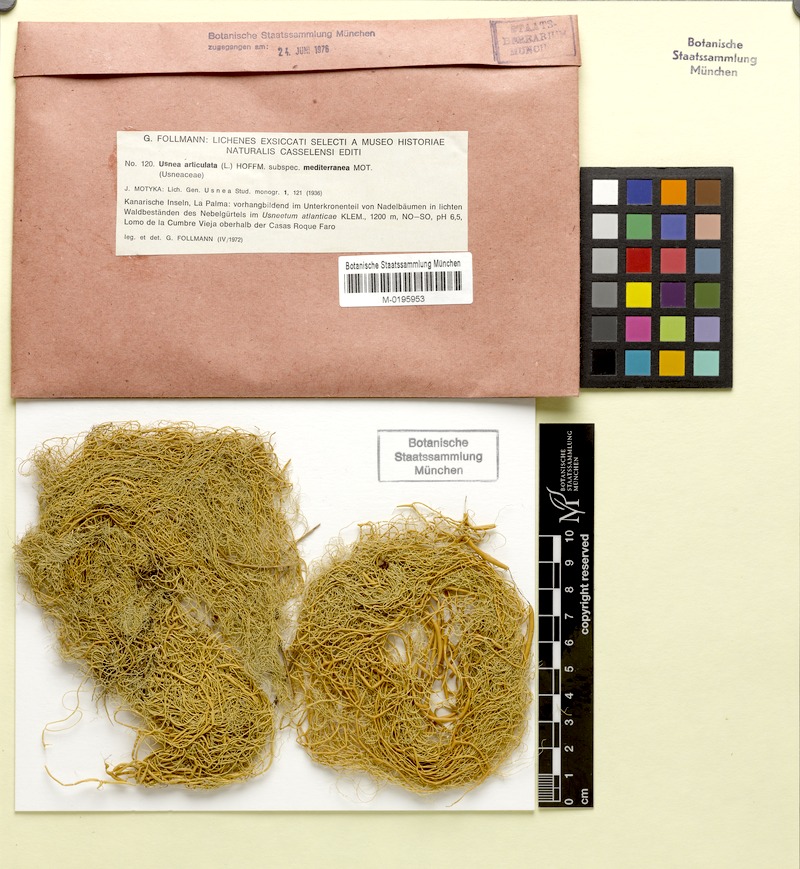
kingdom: Fungi
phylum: Ascomycota
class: Lecanoromycetes
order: Lecanorales
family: Parmeliaceae
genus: Usnea
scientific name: Usnea articulata
